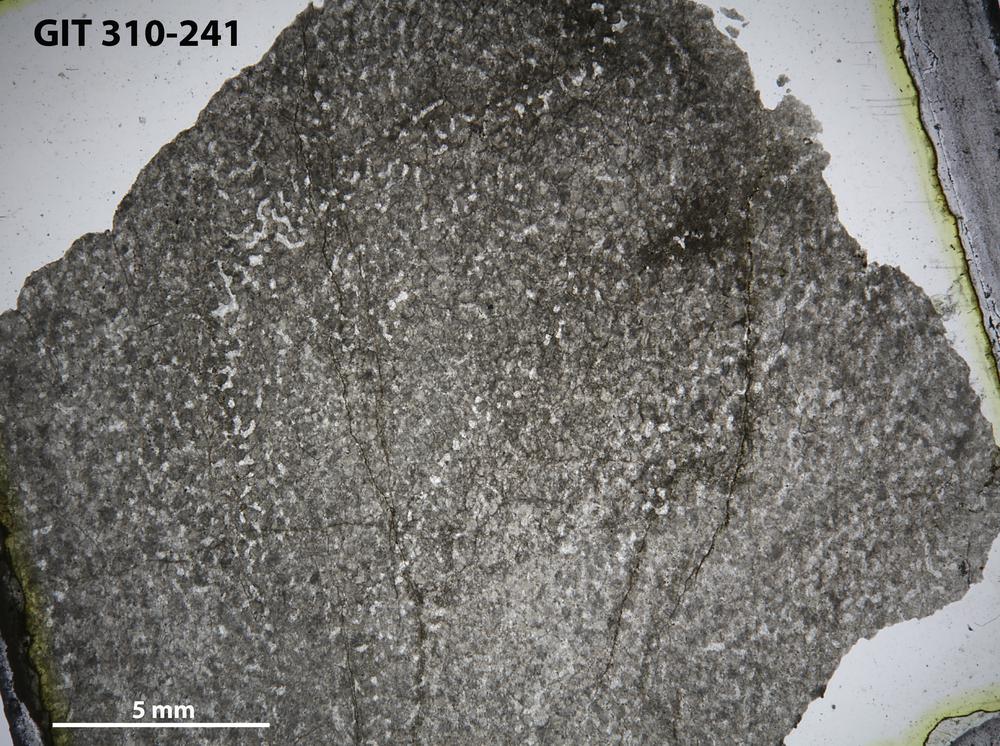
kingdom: Animalia
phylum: Porifera
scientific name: Porifera
